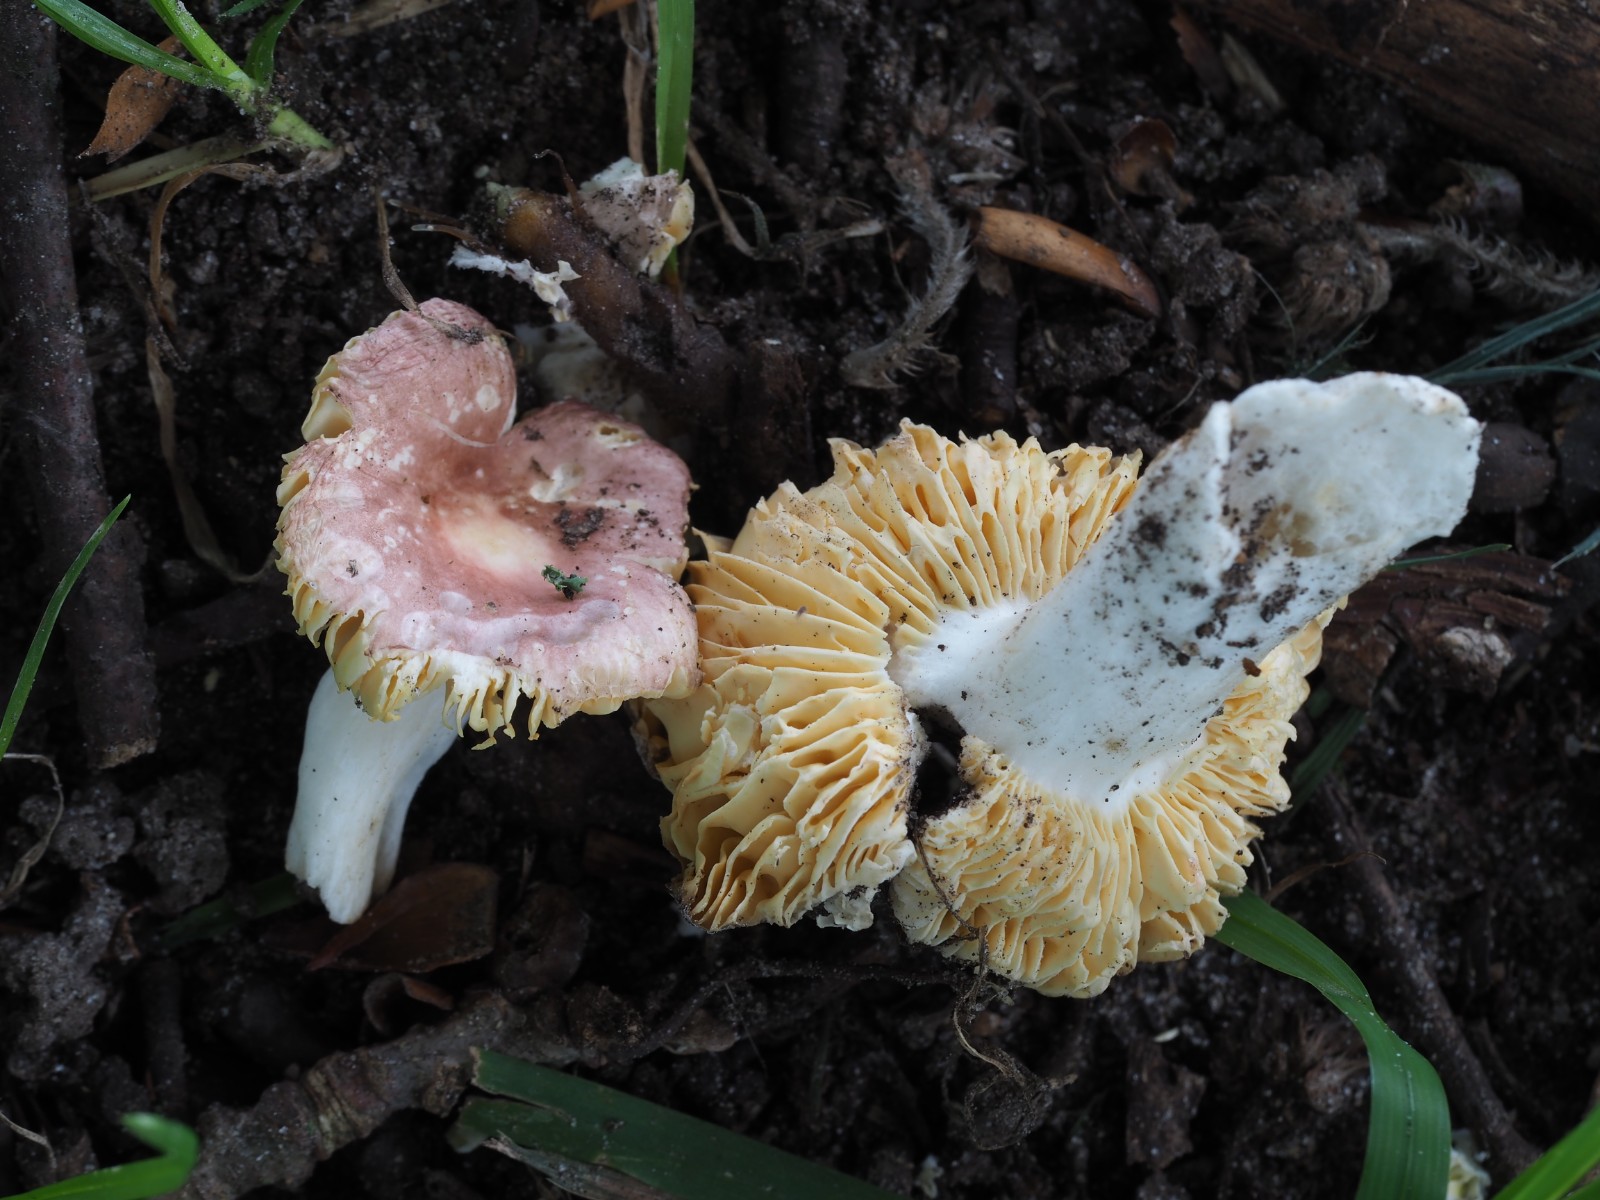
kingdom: Fungi
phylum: Basidiomycota
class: Agaricomycetes
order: Russulales
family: Russulaceae
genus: Russula
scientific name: Russula odorata
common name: duft-skørhat
